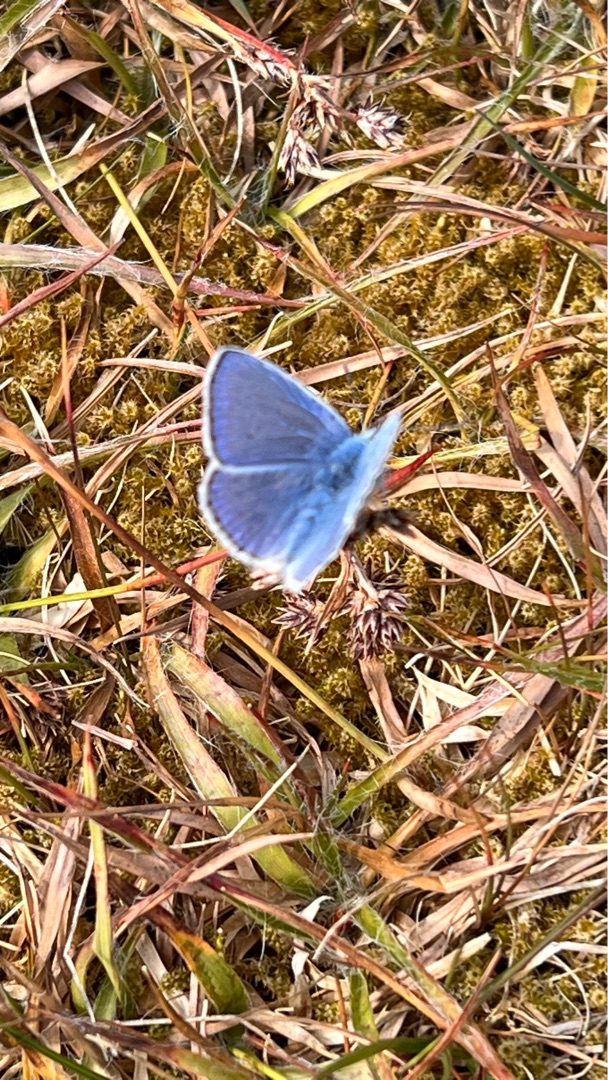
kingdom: Animalia
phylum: Arthropoda
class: Insecta
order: Lepidoptera
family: Lycaenidae
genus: Polyommatus
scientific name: Polyommatus icarus
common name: Almindelig blåfugl
